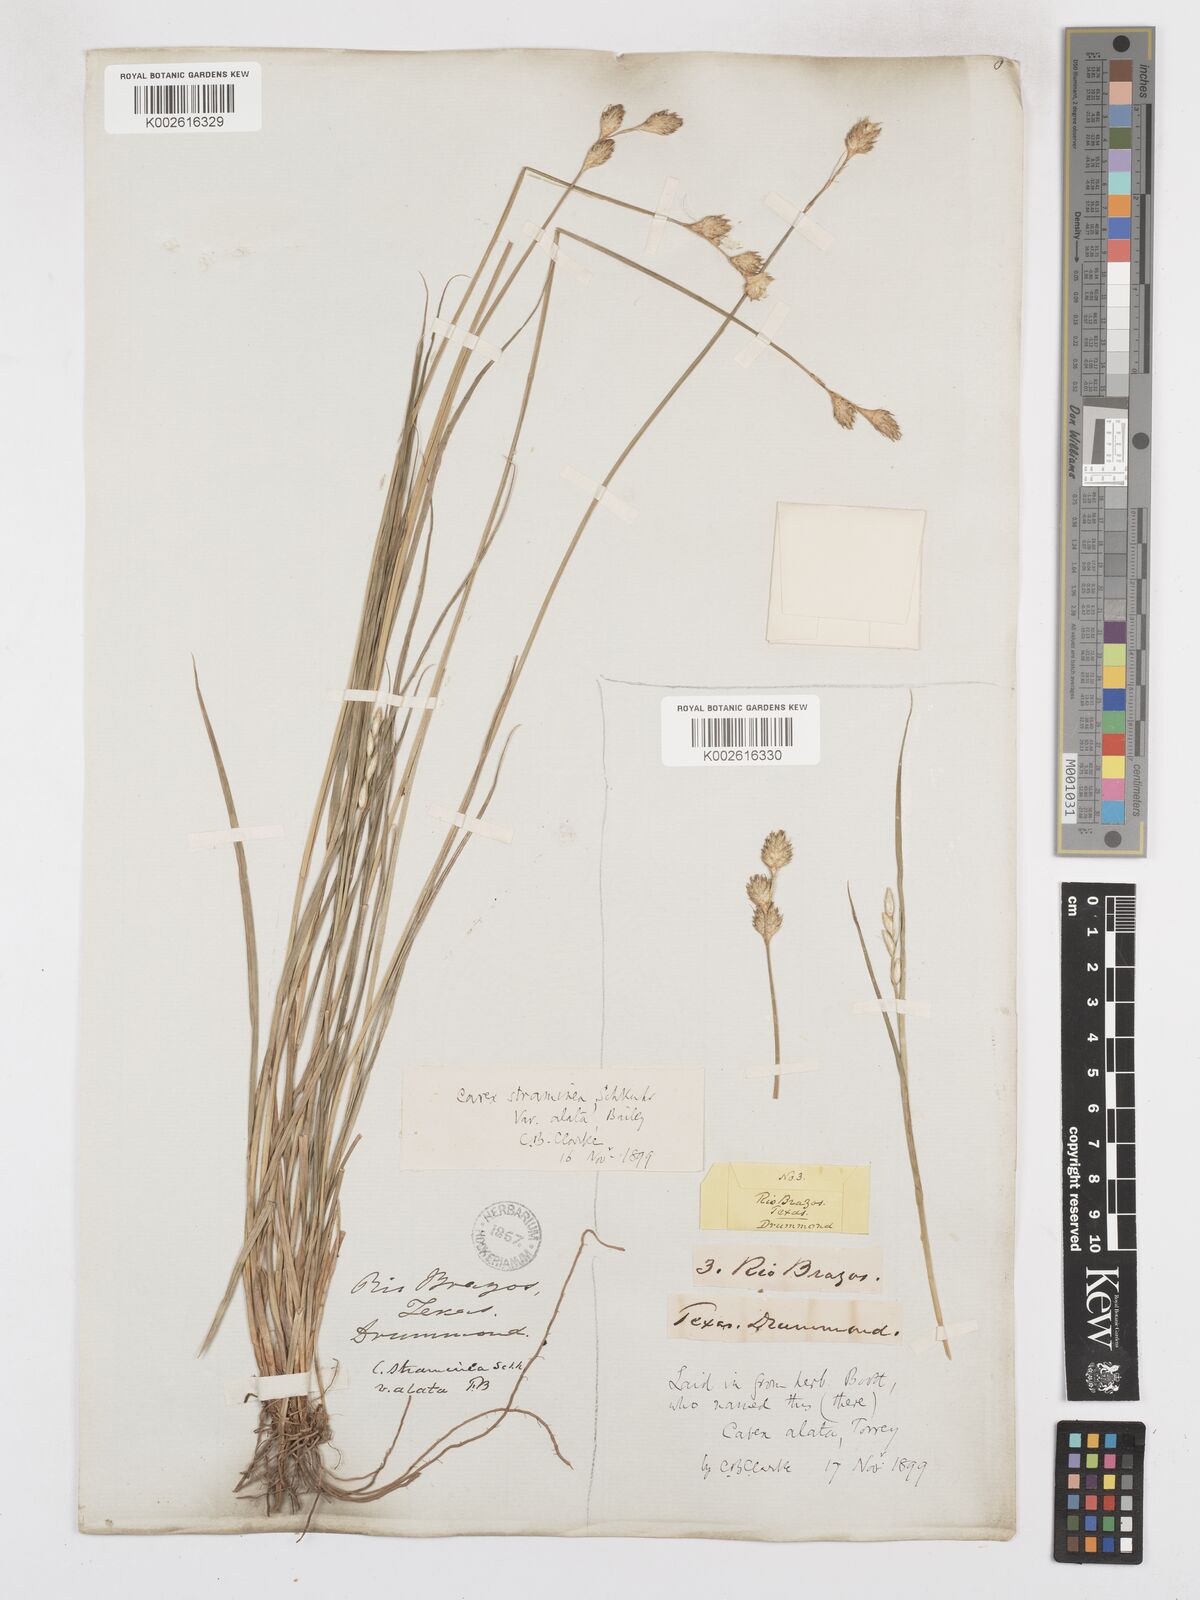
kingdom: Plantae
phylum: Tracheophyta
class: Liliopsida
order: Poales
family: Cyperaceae
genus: Carex
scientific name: Carex alata
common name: Broad-winged sedge
